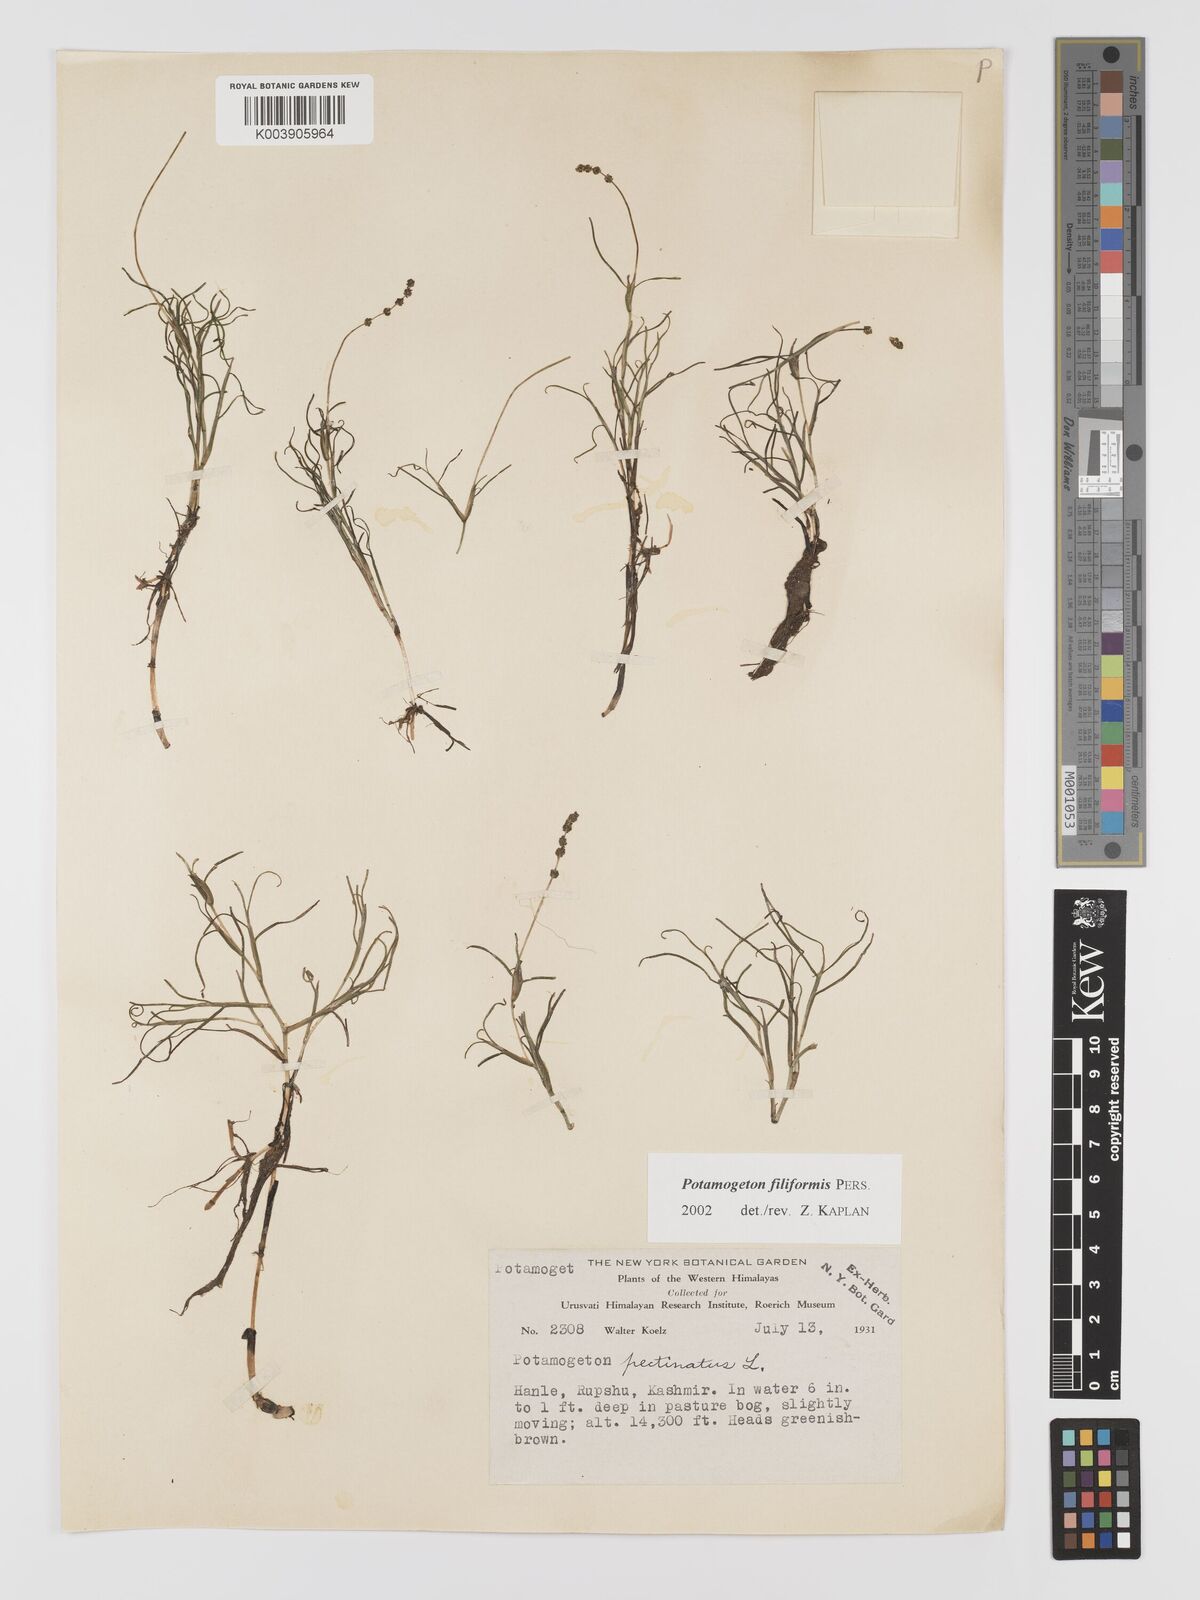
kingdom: Plantae
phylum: Tracheophyta
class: Liliopsida
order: Alismatales
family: Potamogetonaceae
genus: Potamogeton
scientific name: Potamogeton filiformis
